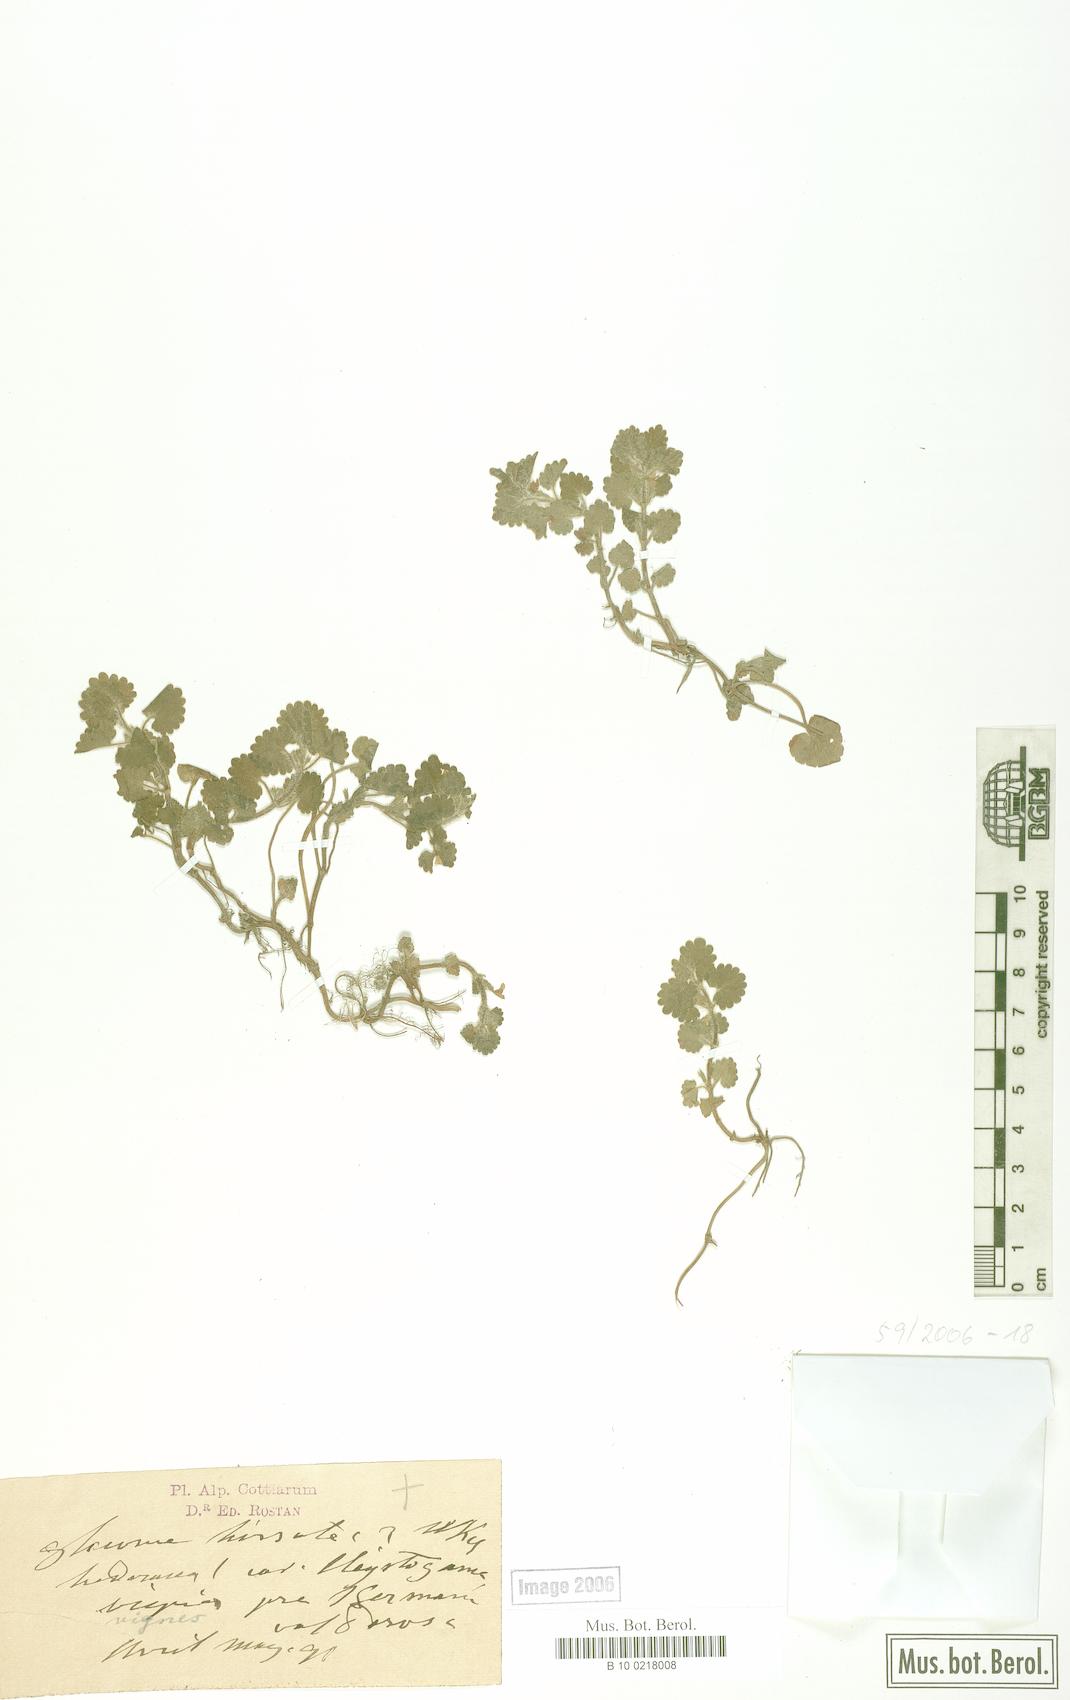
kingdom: Plantae
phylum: Tracheophyta
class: Magnoliopsida
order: Lamiales
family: Lamiaceae
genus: Glechoma
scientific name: Glechoma hirsuta
